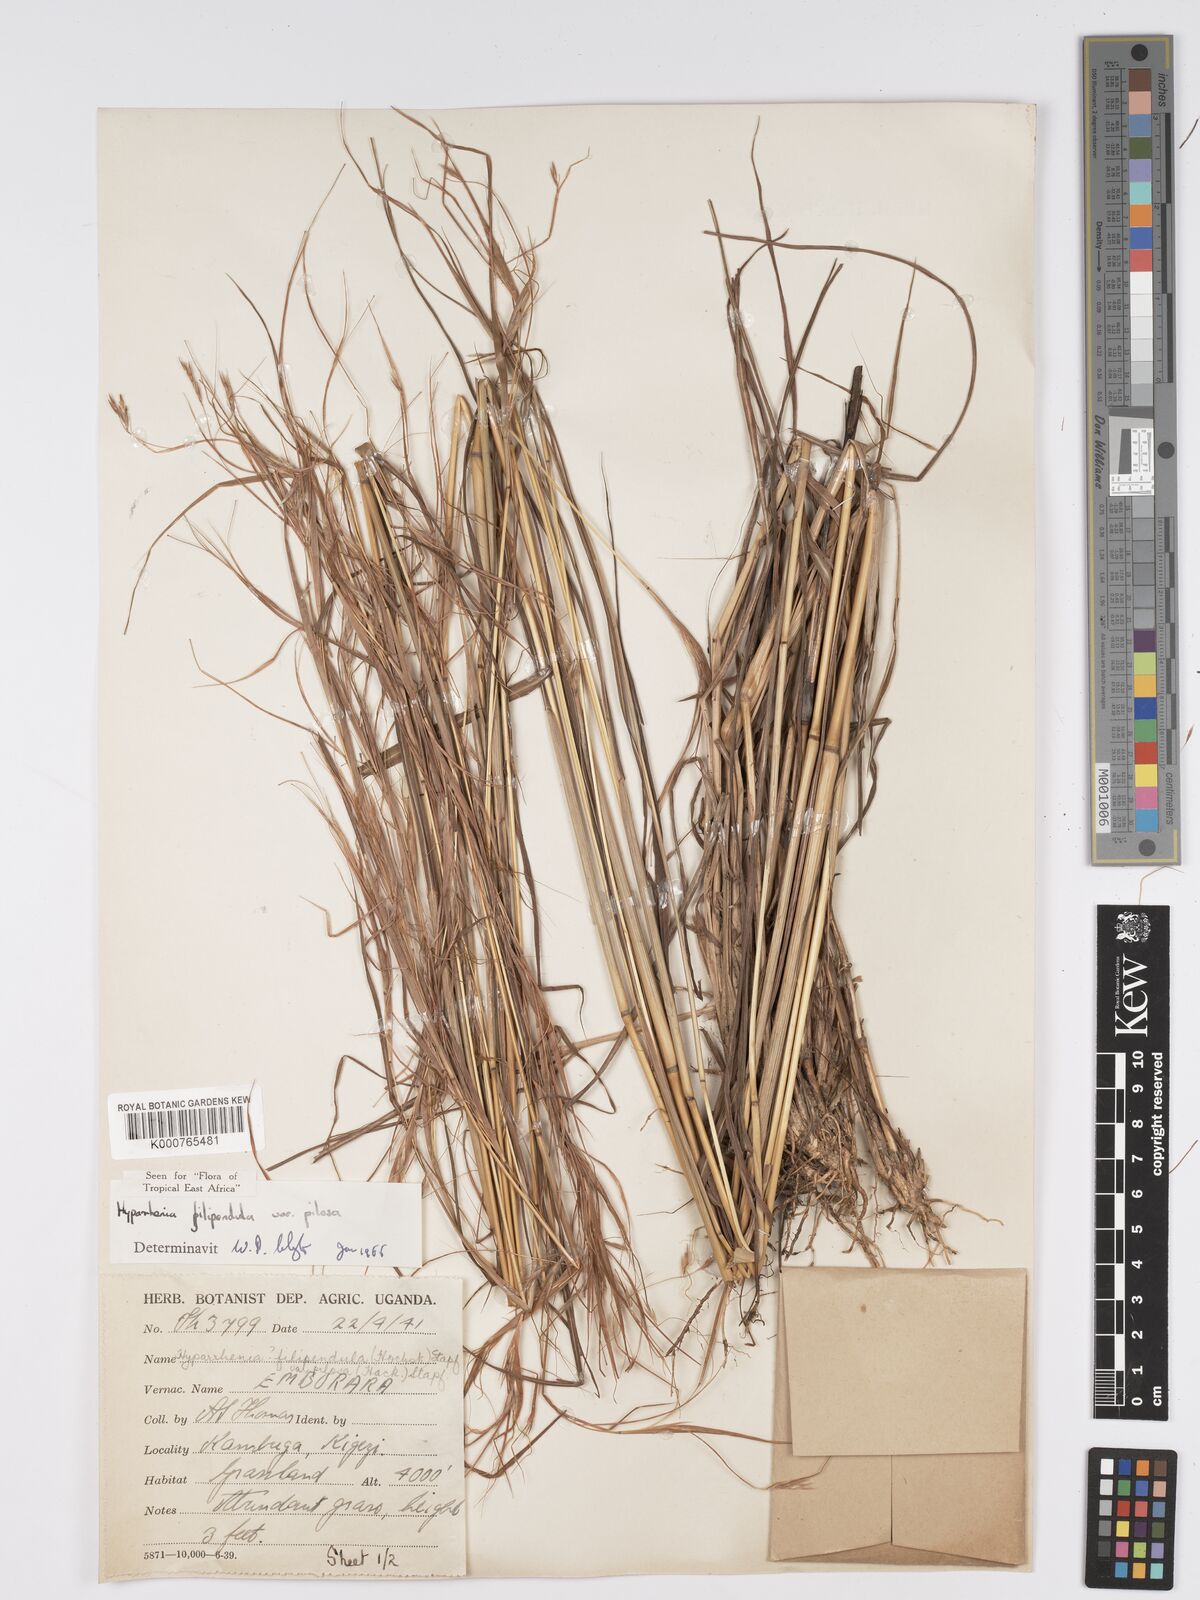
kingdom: Plantae
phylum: Tracheophyta
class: Liliopsida
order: Poales
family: Poaceae
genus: Hyparrhenia
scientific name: Hyparrhenia filipendula
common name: Tambookie grass
